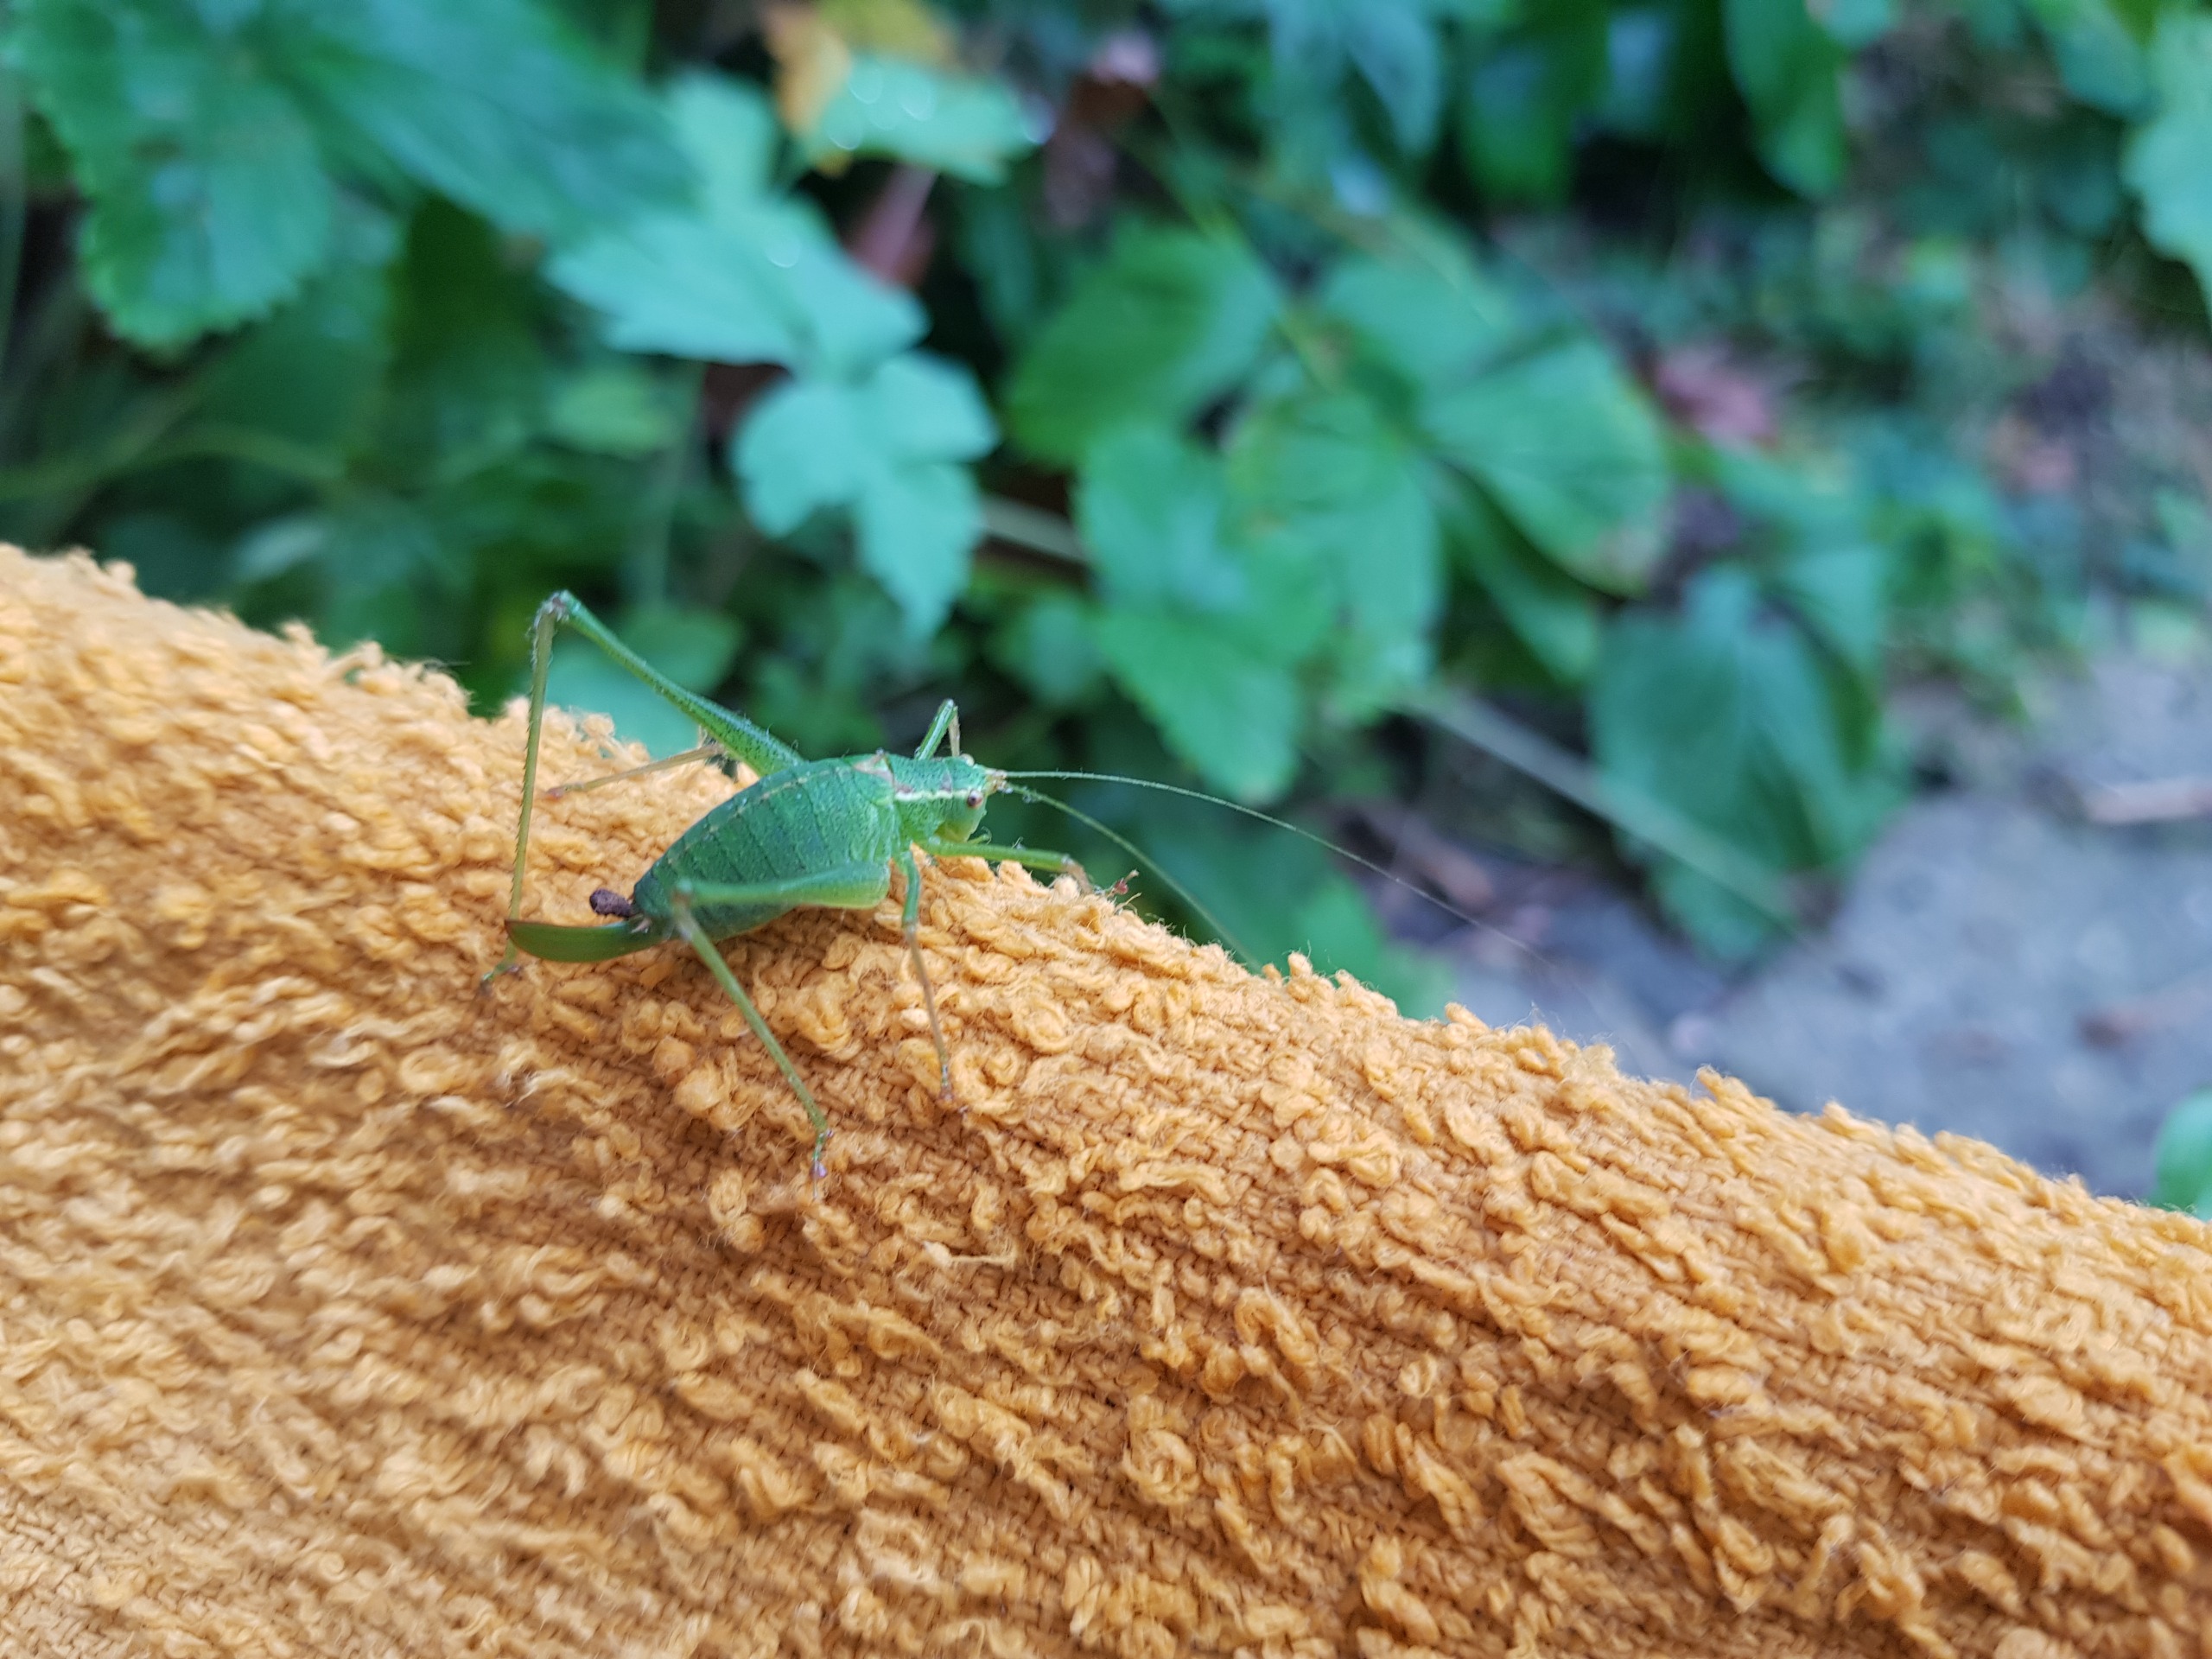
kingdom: Animalia
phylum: Arthropoda
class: Insecta
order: Orthoptera
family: Tettigoniidae
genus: Leptophyes
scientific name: Leptophyes punctatissima
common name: Krumknivgræshoppe
